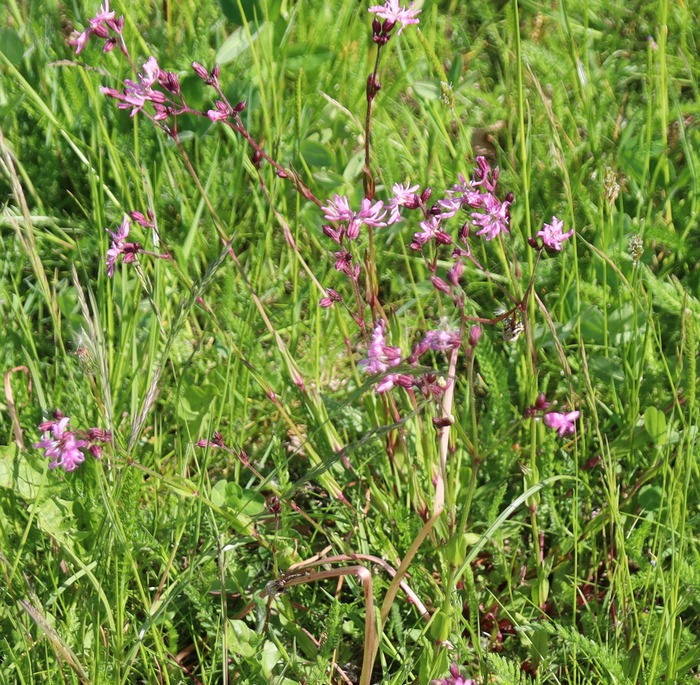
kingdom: Plantae
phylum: Tracheophyta
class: Magnoliopsida
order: Caryophyllales
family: Caryophyllaceae
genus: Silene
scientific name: Silene flos-cuculi
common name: Trævlekrone
